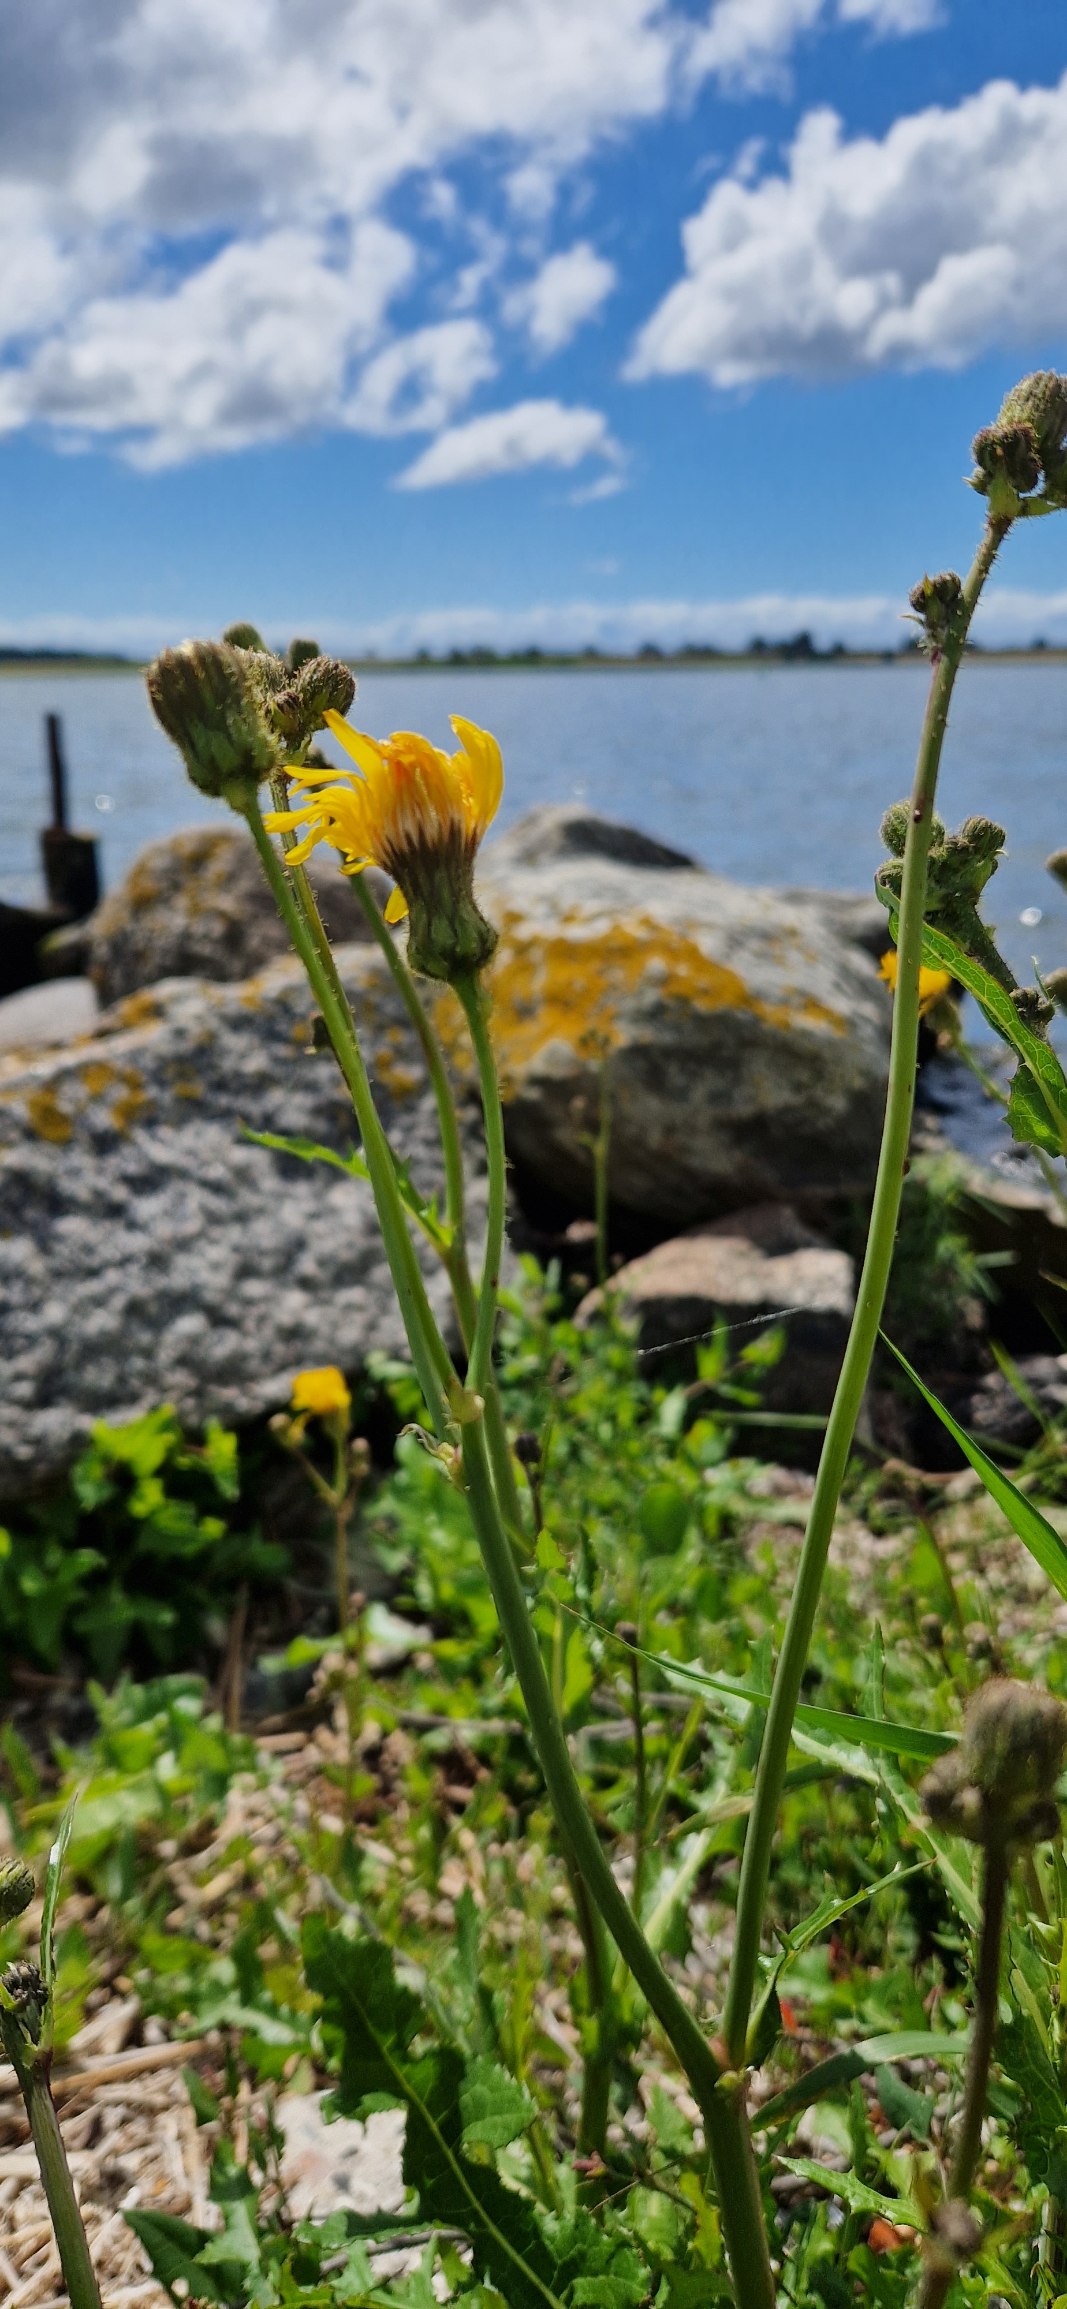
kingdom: Plantae
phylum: Tracheophyta
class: Magnoliopsida
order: Asterales
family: Asteraceae
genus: Sonchus
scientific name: Sonchus arvensis
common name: Ager-svinemælk
